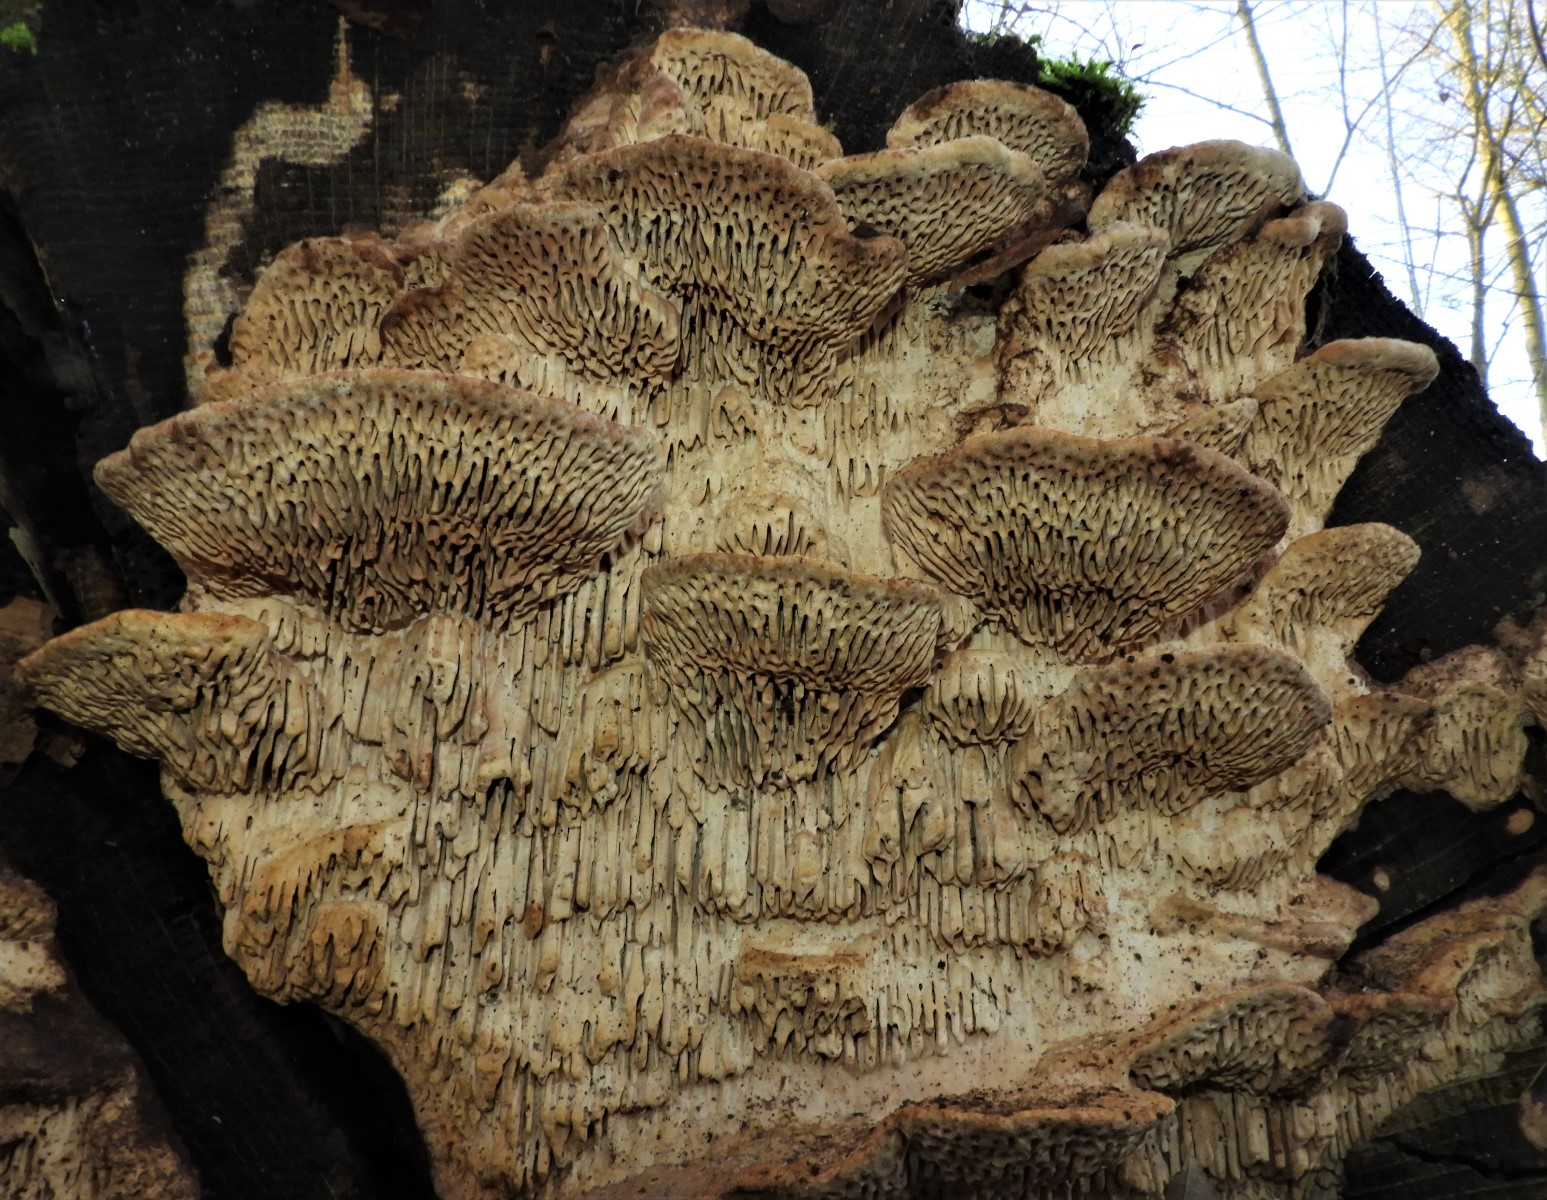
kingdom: Fungi
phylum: Basidiomycota
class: Agaricomycetes
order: Polyporales
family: Fomitopsidaceae
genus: Daedalea
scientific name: Daedalea quercina
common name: ege-labyrintsvamp
